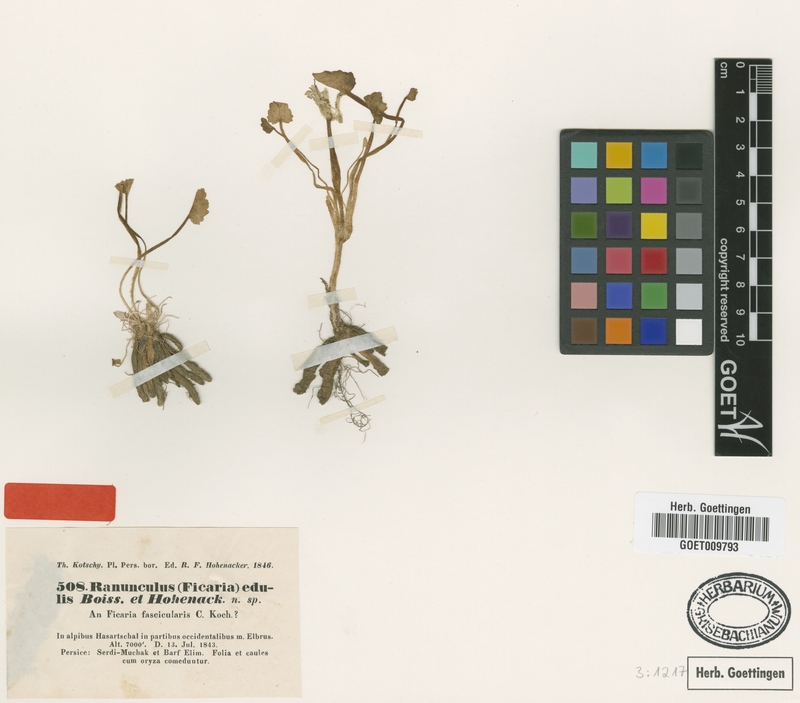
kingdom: Plantae
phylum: Tracheophyta
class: Magnoliopsida
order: Ranunculales
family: Ranunculaceae
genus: Ficaria
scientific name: Ficaria kochii
